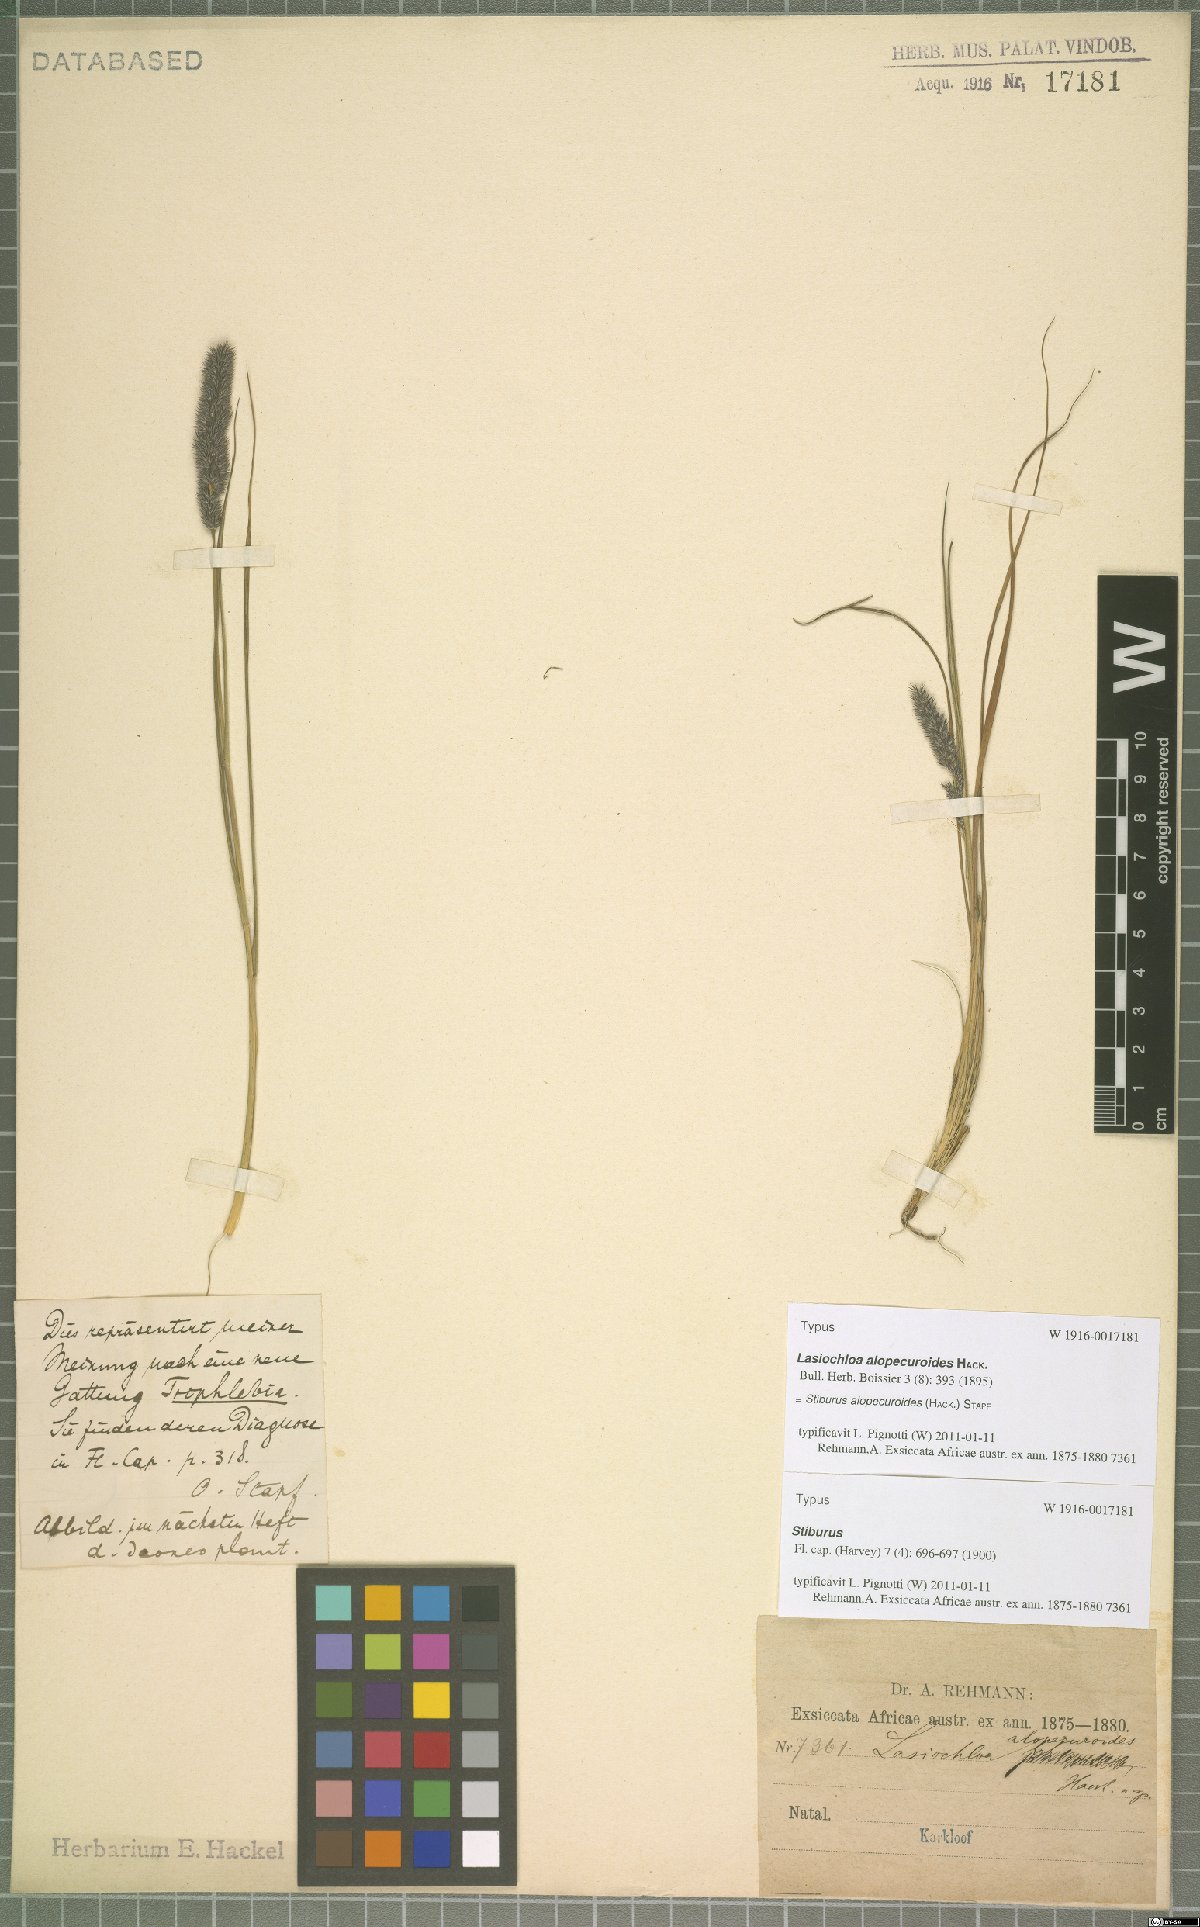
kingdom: Plantae
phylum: Tracheophyta
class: Liliopsida
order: Poales
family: Poaceae
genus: Stiburus
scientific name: Stiburus alopecuroides
